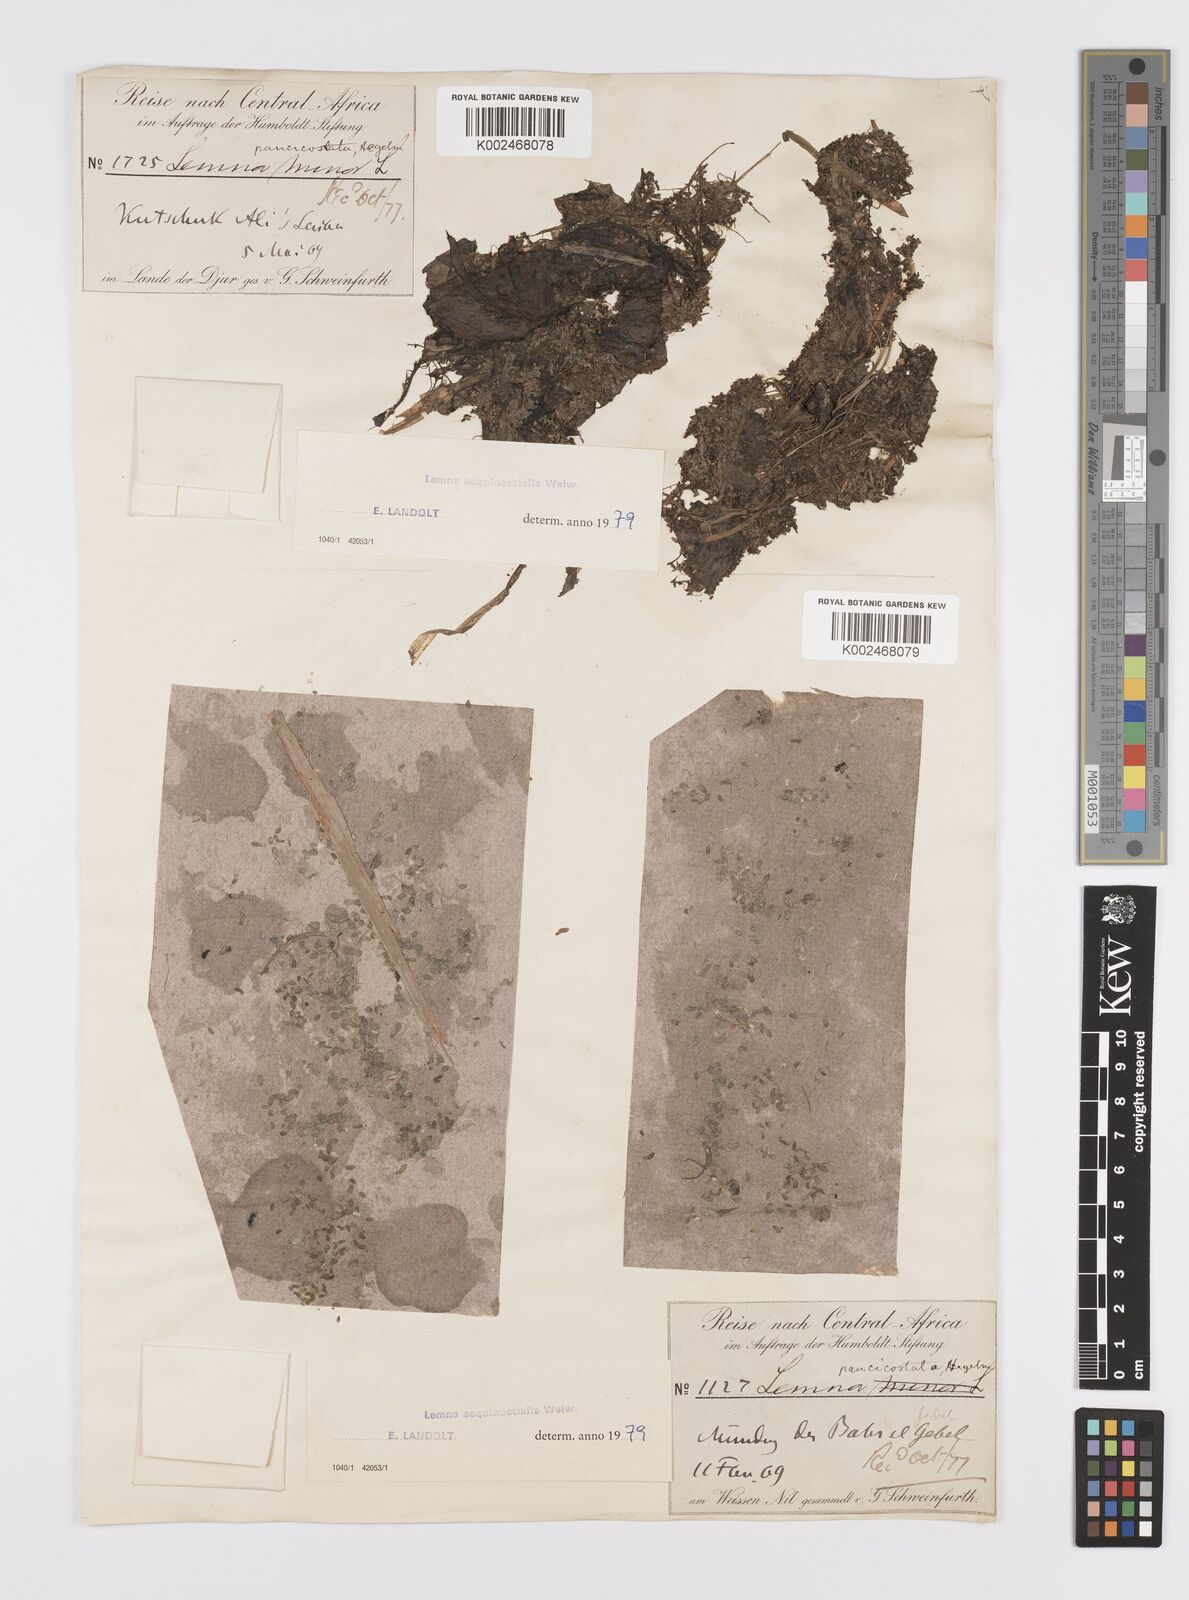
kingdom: Plantae
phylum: Tracheophyta
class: Liliopsida
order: Alismatales
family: Araceae
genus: Lemna
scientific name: Lemna aequinoctialis
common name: Duckweed
